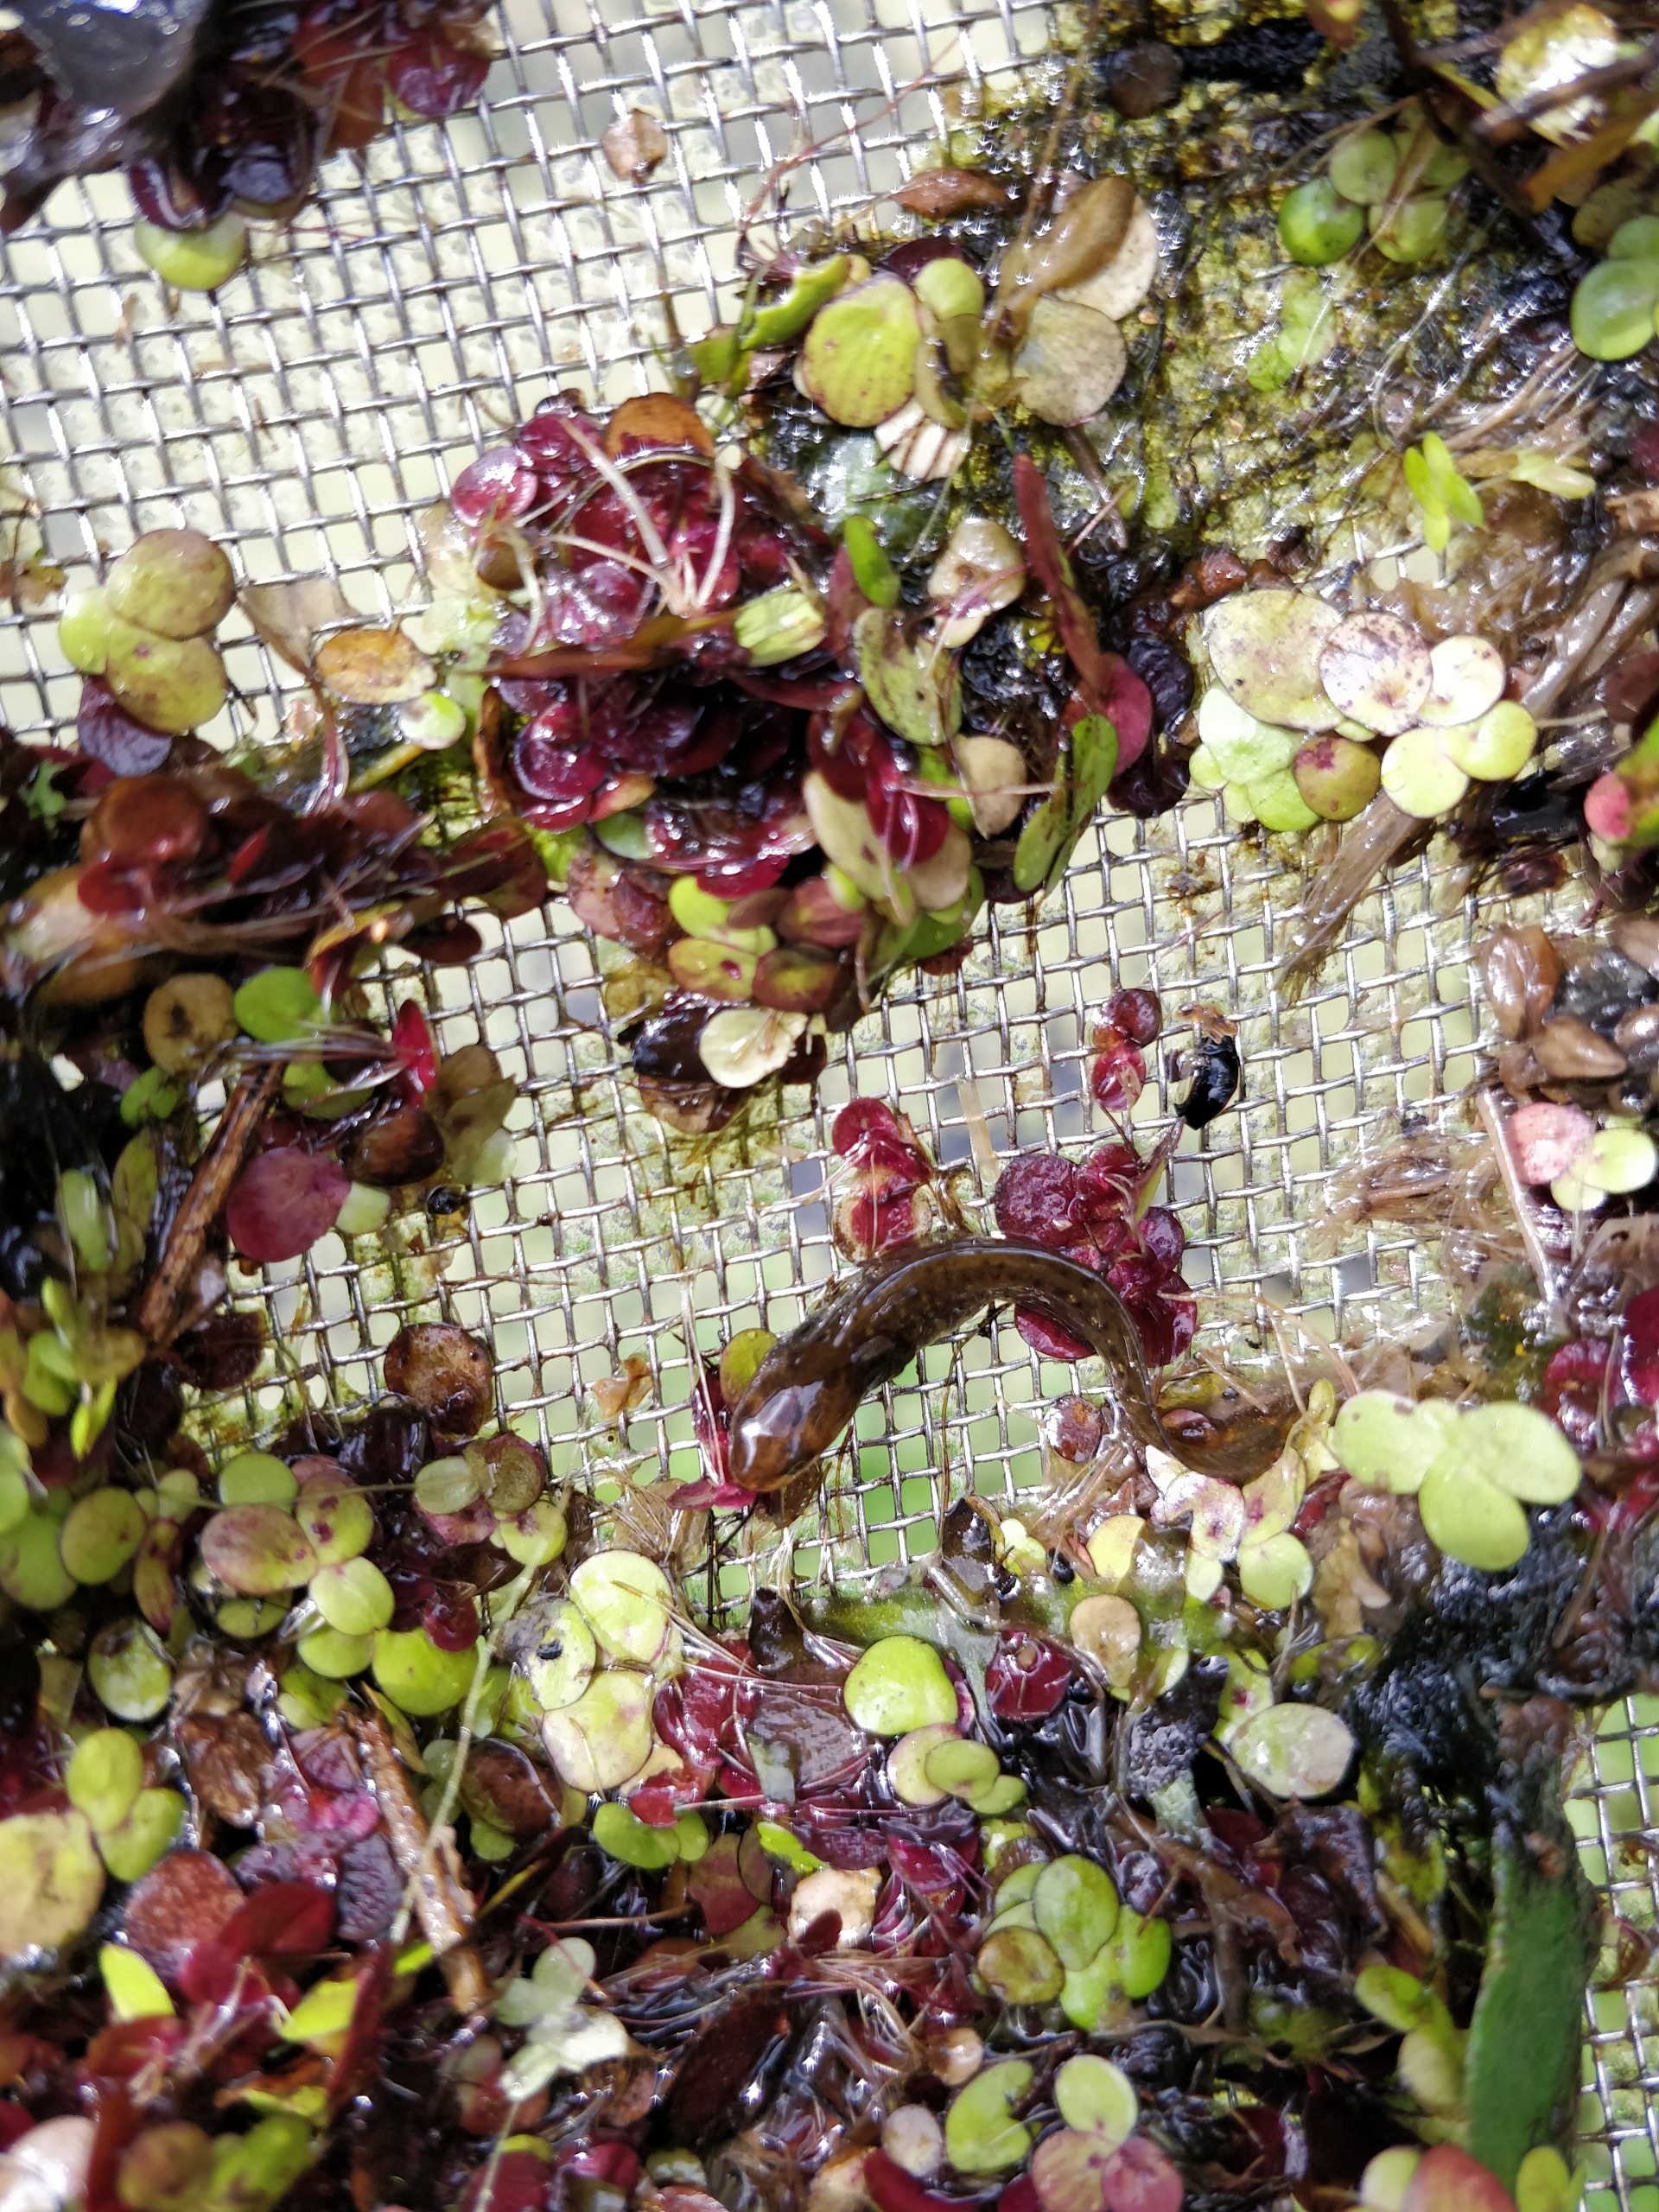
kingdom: Animalia
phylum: Chordata
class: Amphibia
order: Caudata
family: Salamandridae
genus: Lissotriton
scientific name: Lissotriton vulgaris
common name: Lille vandsalamander
